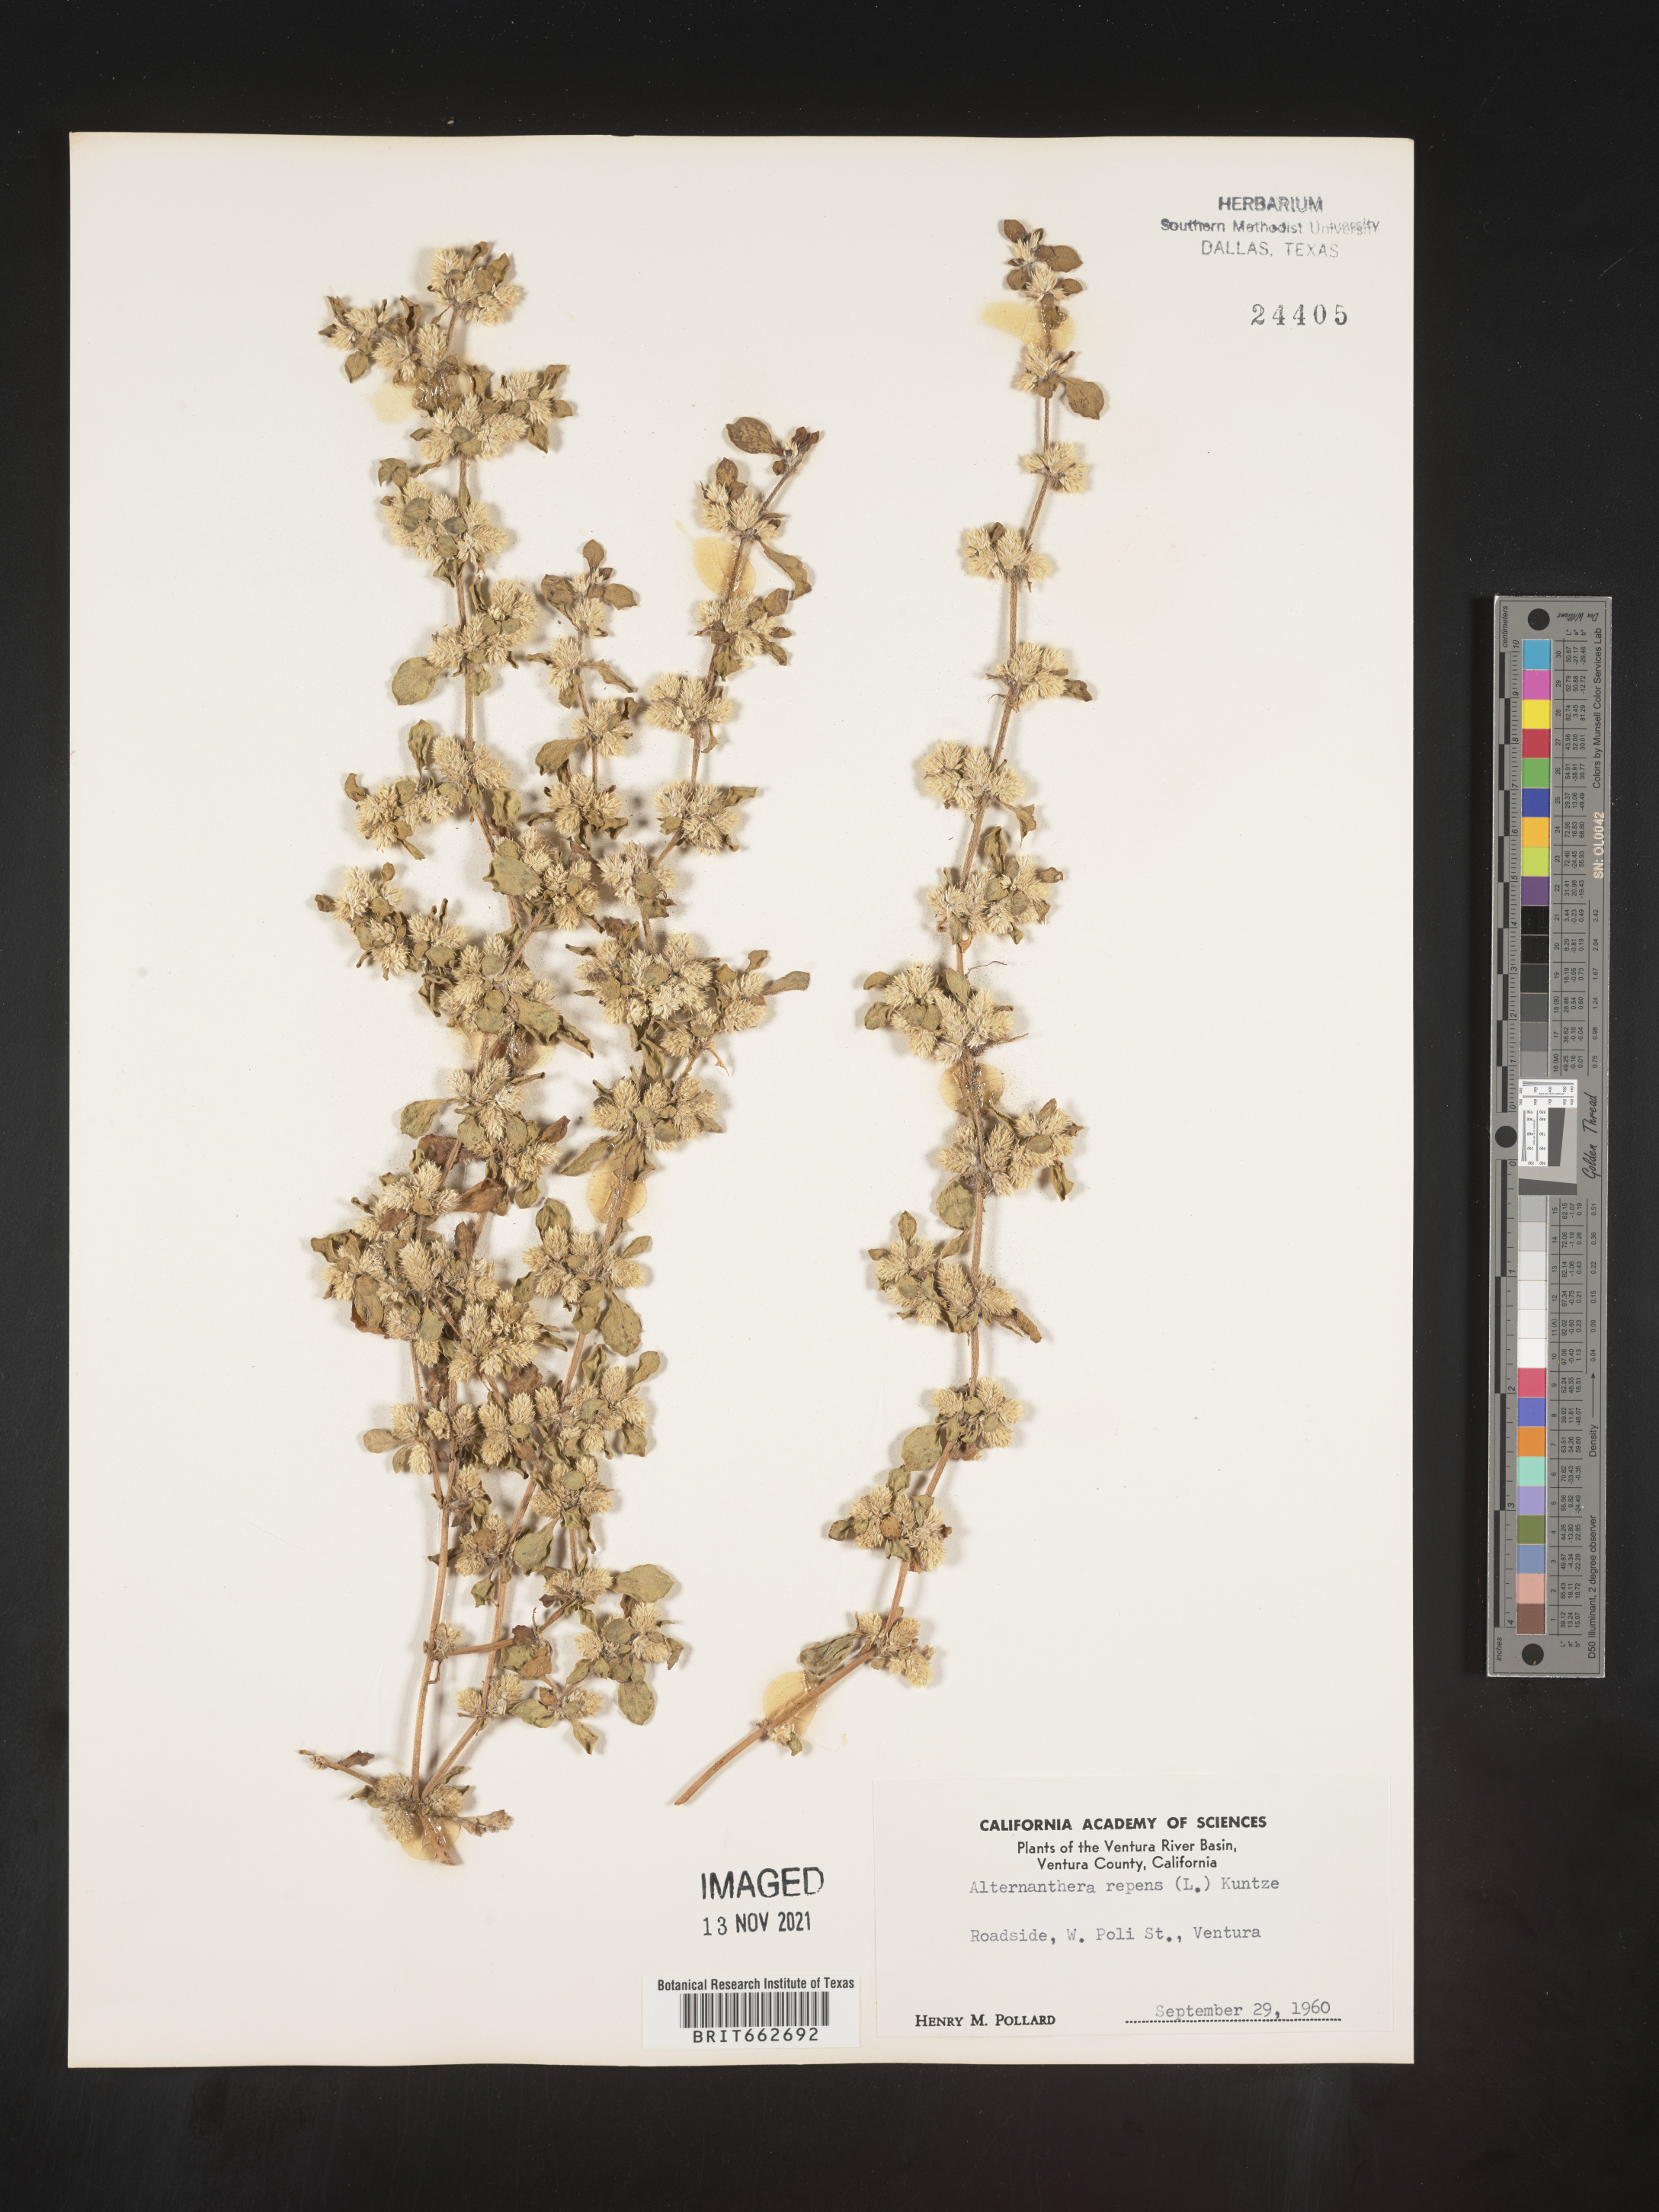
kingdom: Plantae
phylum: Tracheophyta
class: Magnoliopsida
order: Caryophyllales
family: Amaranthaceae
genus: Alternanthera
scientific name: Alternanthera pungens
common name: Khakiweed
